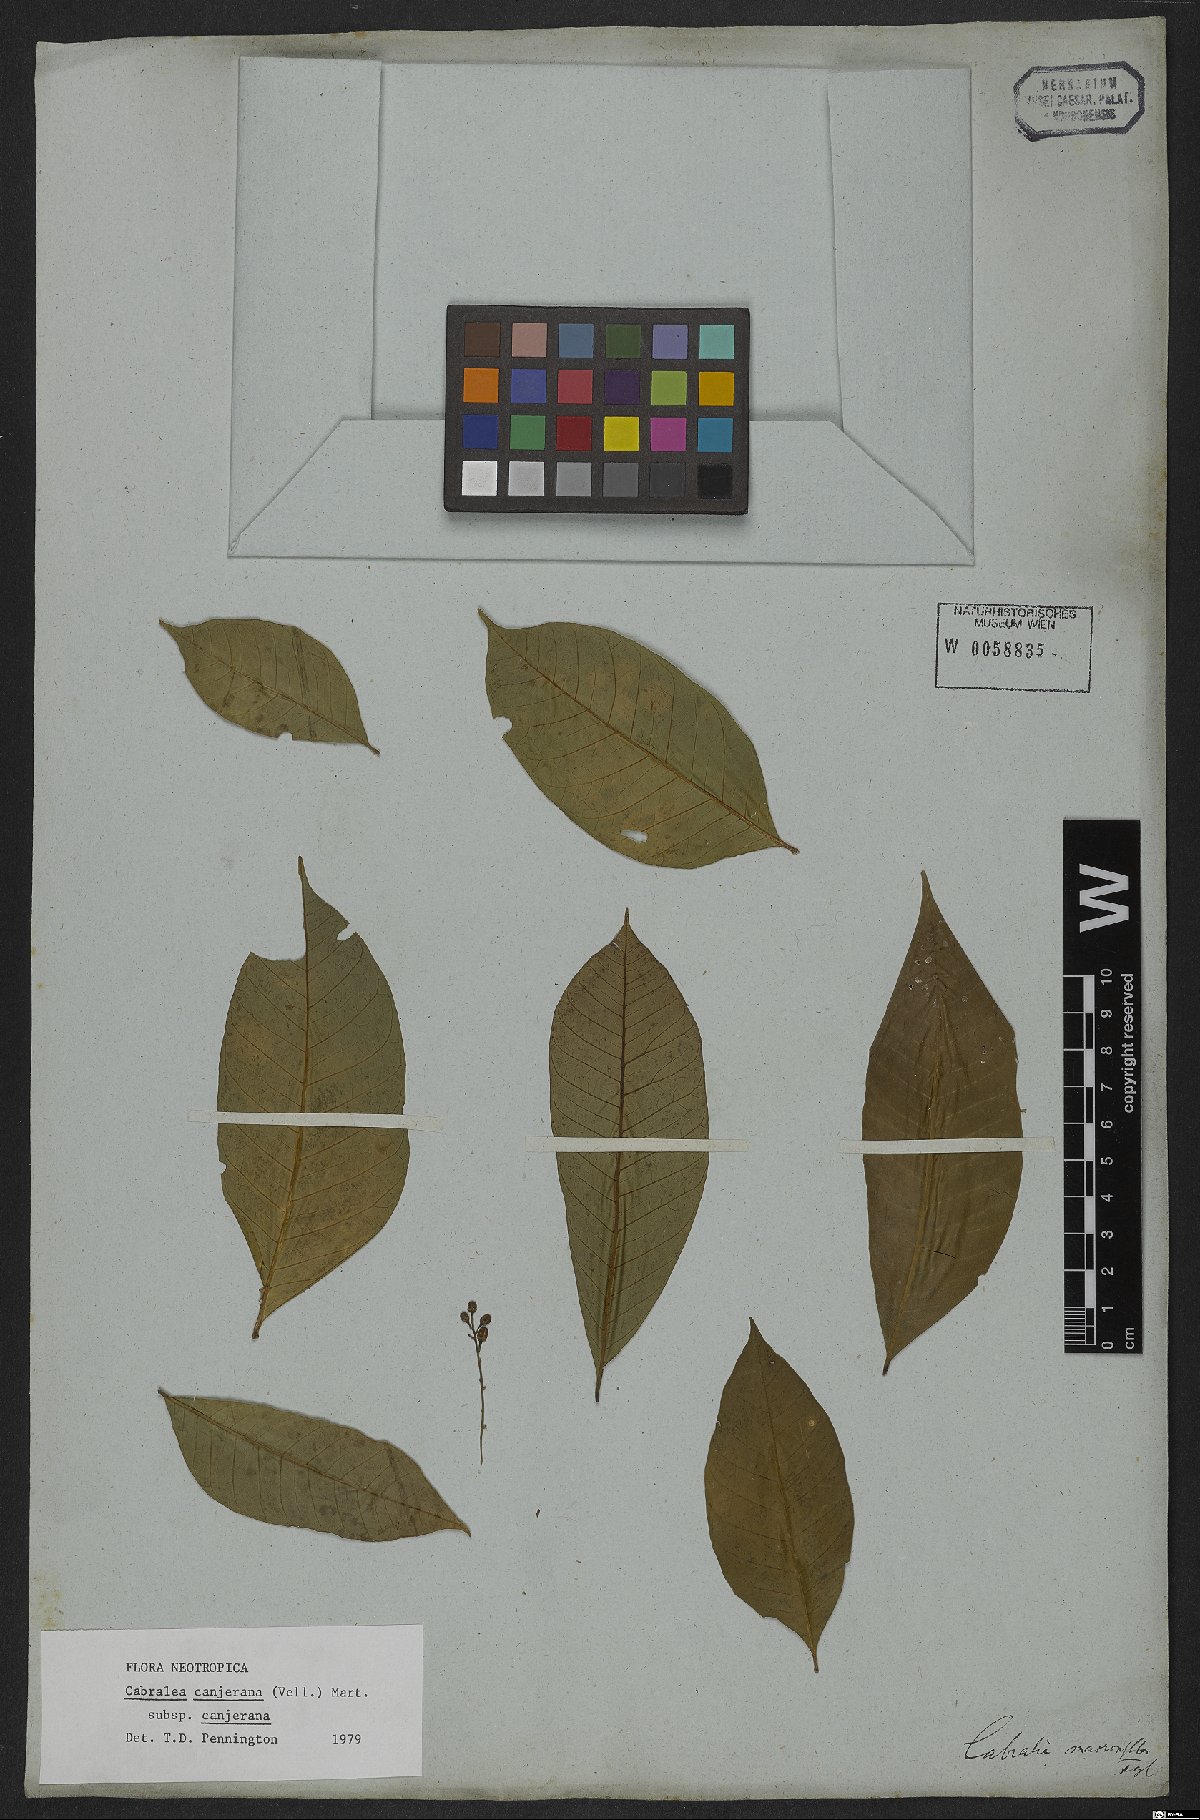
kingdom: Plantae
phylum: Tracheophyta
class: Magnoliopsida
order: Sapindales
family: Meliaceae
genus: Cabralea
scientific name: Cabralea canjerana
